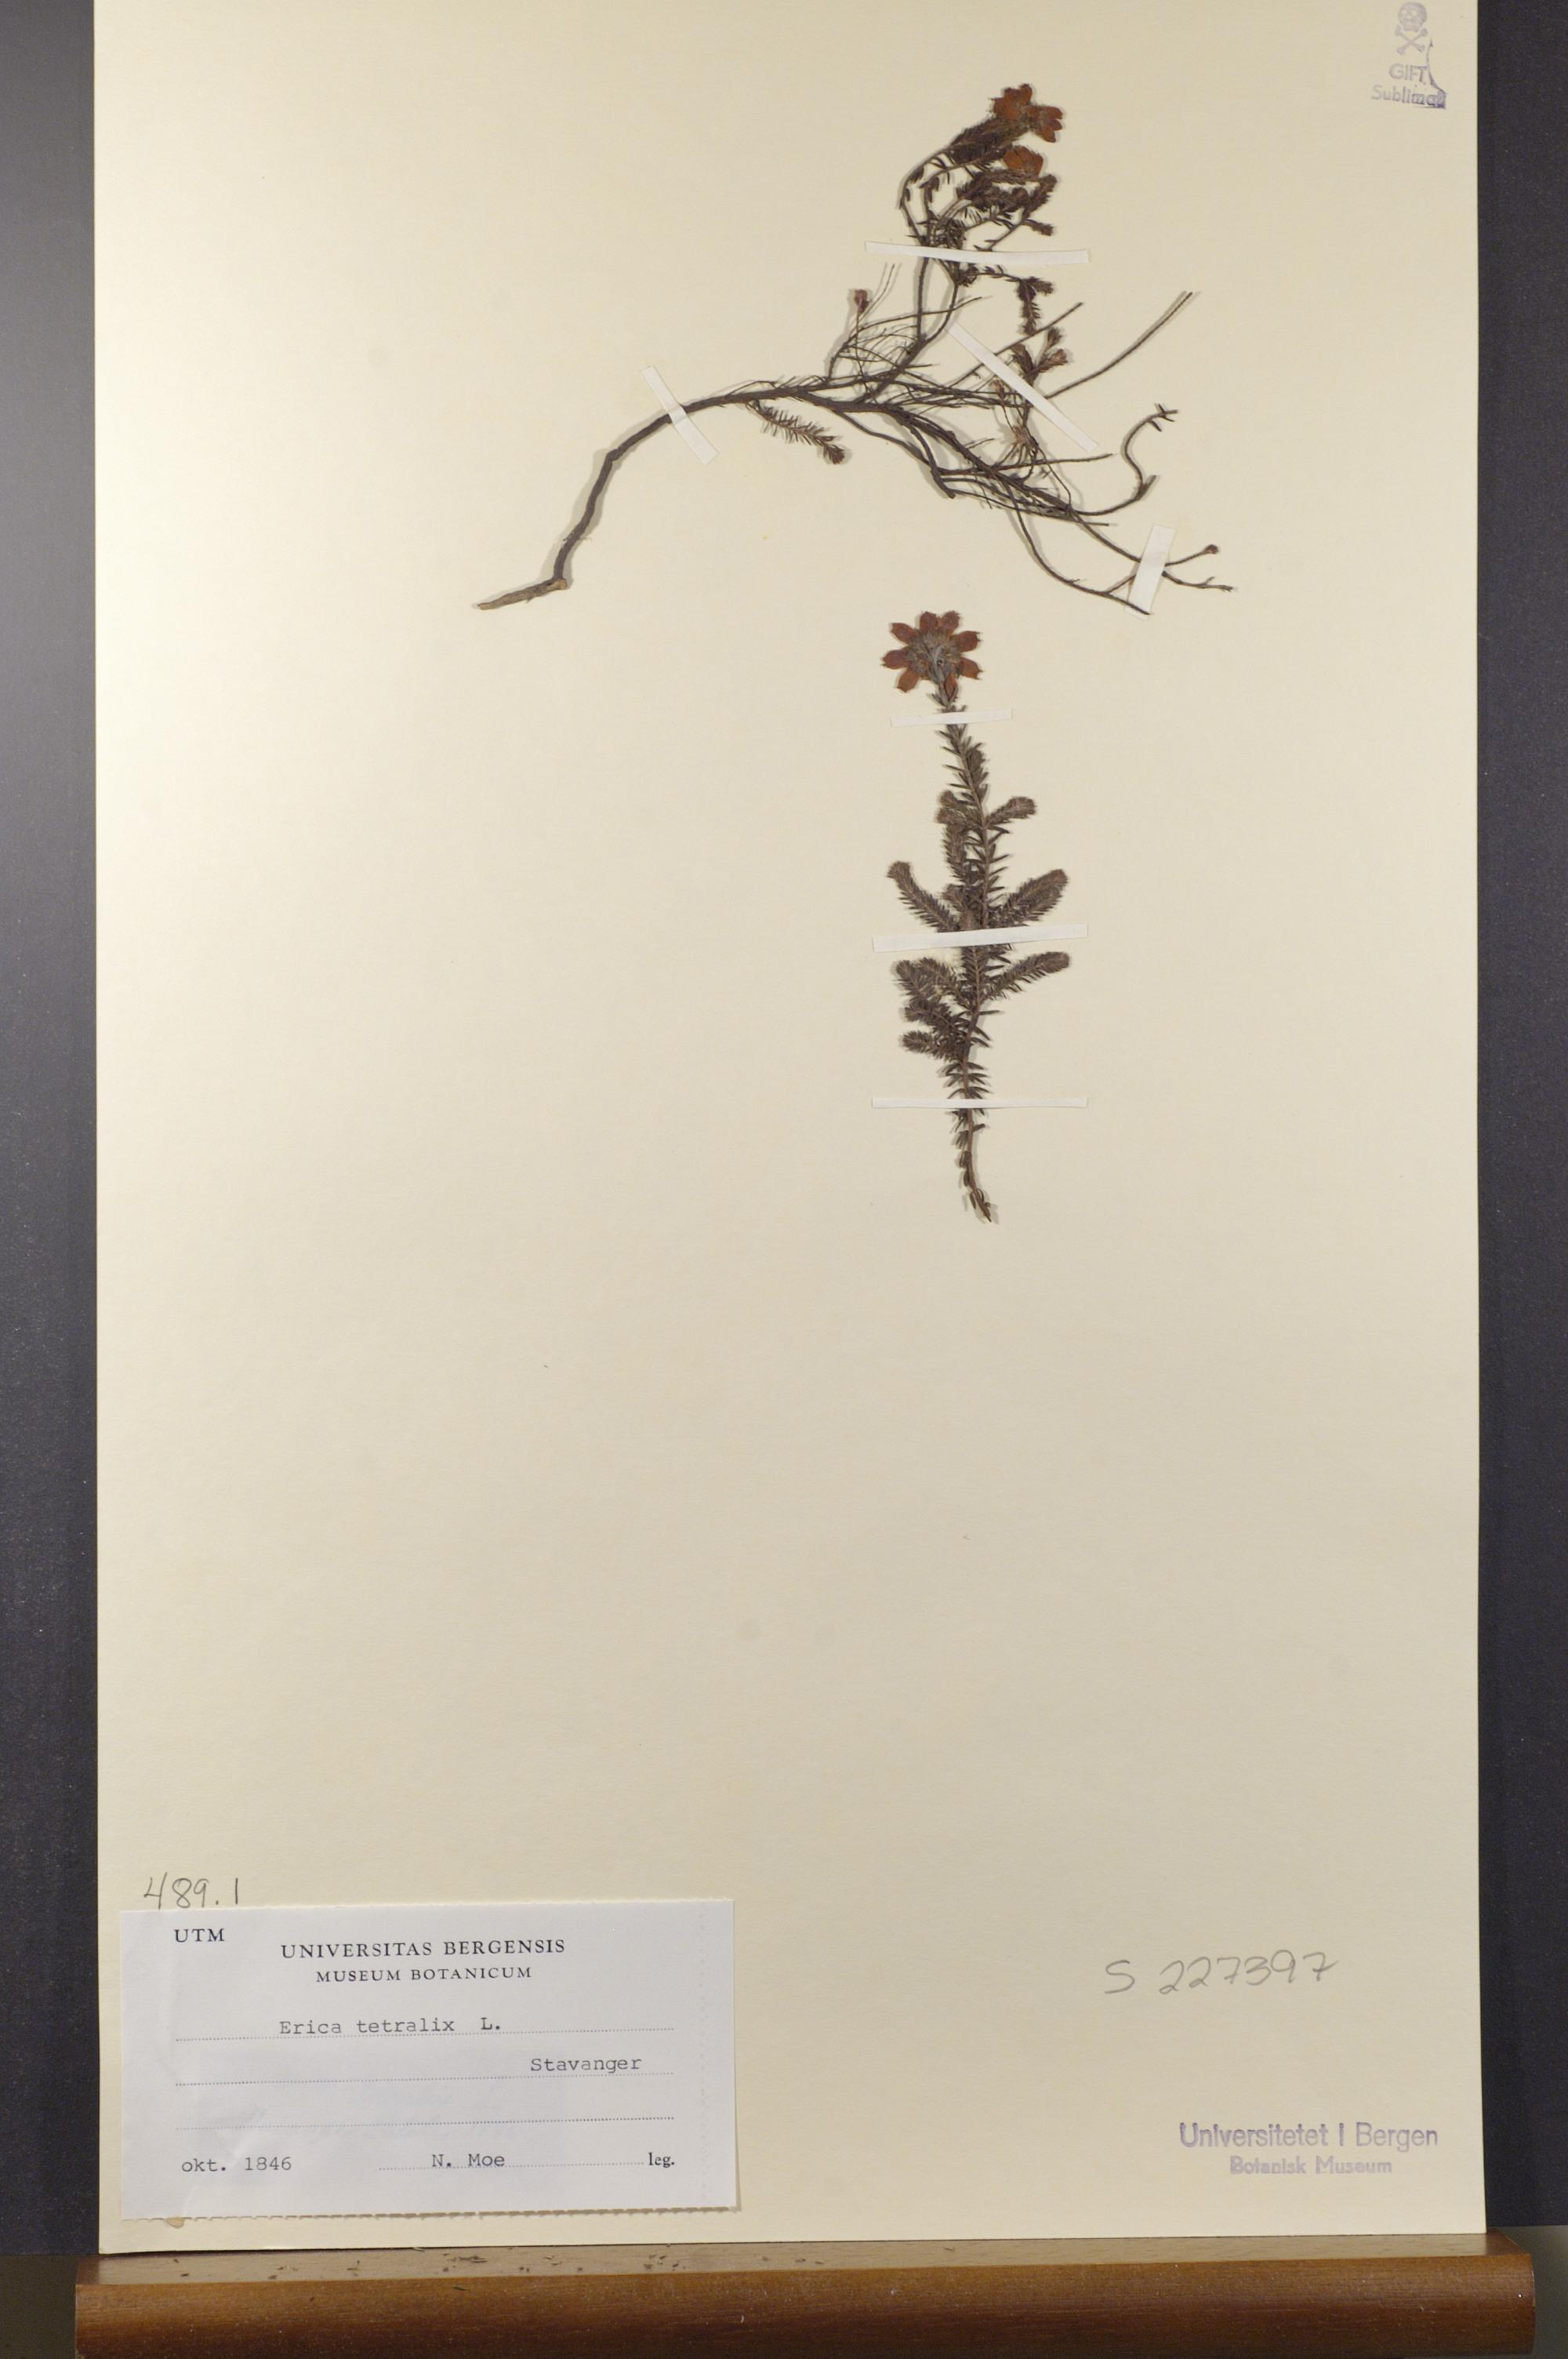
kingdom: Plantae
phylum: Tracheophyta
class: Magnoliopsida
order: Ericales
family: Ericaceae
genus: Erica
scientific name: Erica tetralix
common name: Cross-leaved heath
